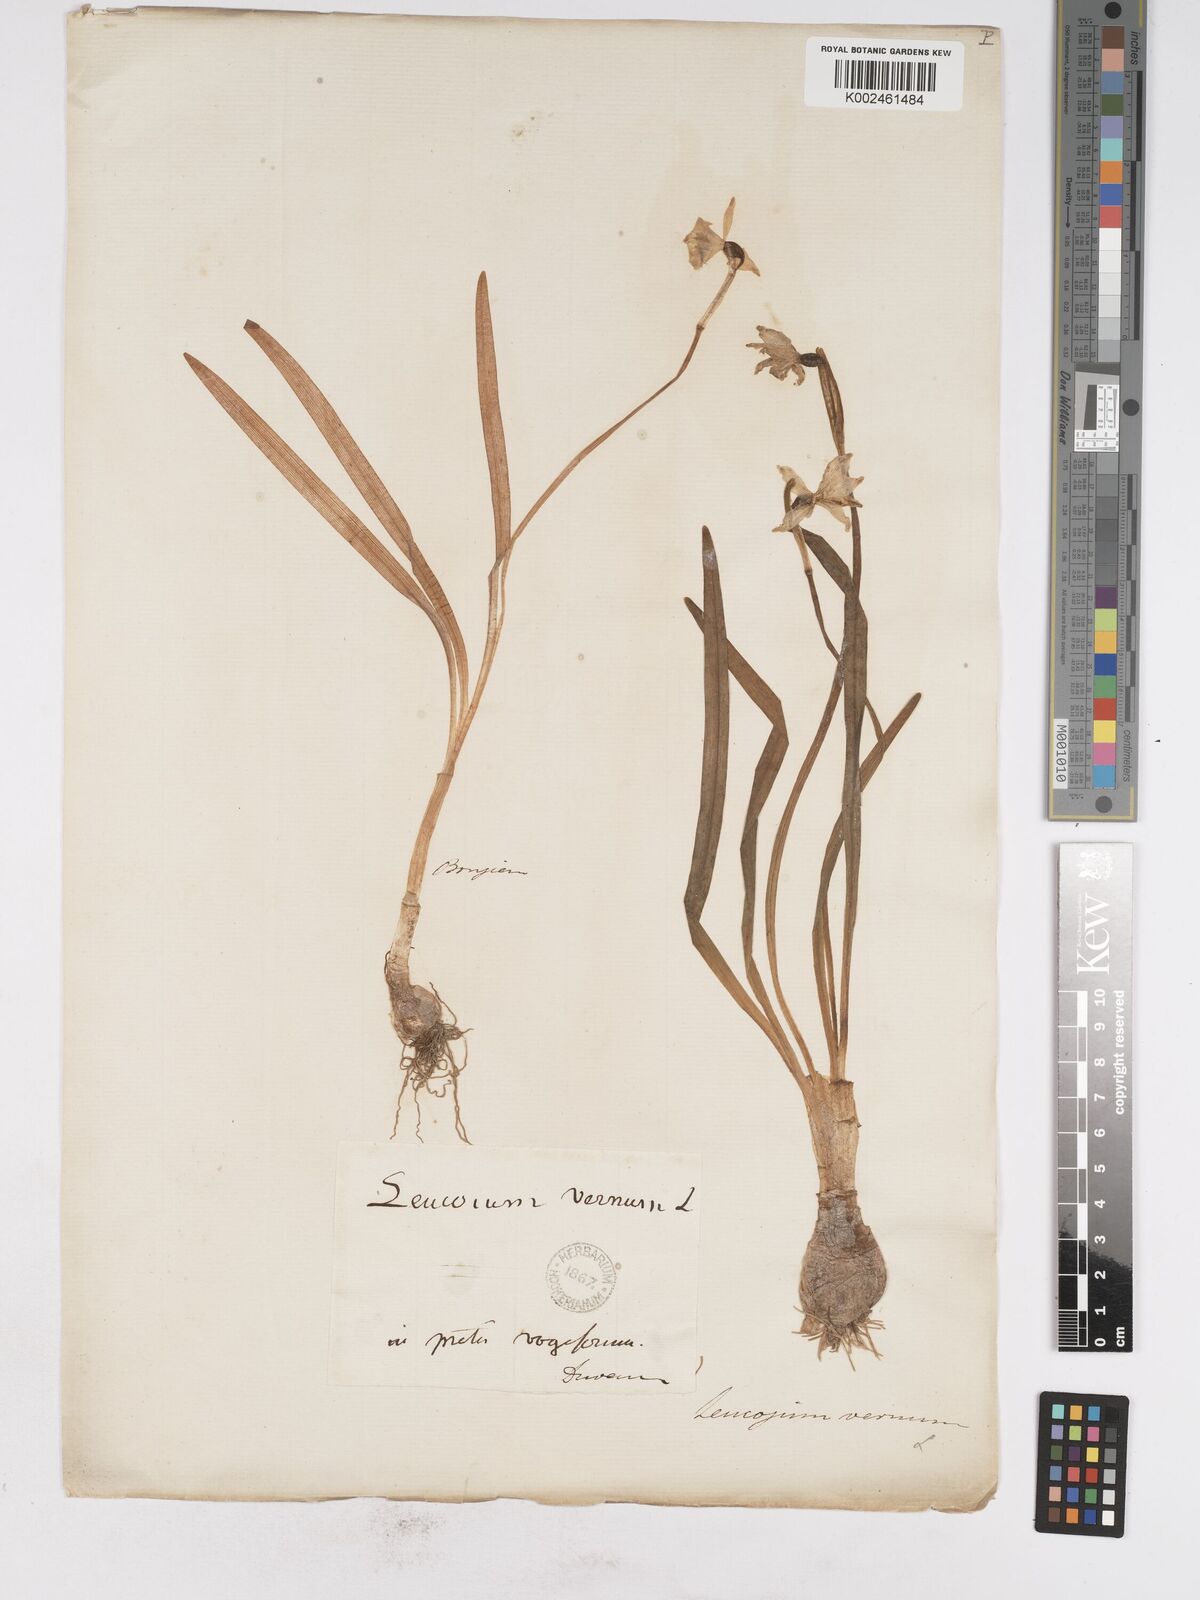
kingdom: Plantae
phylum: Tracheophyta
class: Liliopsida
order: Asparagales
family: Amaryllidaceae
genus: Leucojum
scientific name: Leucojum vernum
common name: Spring snowflake
